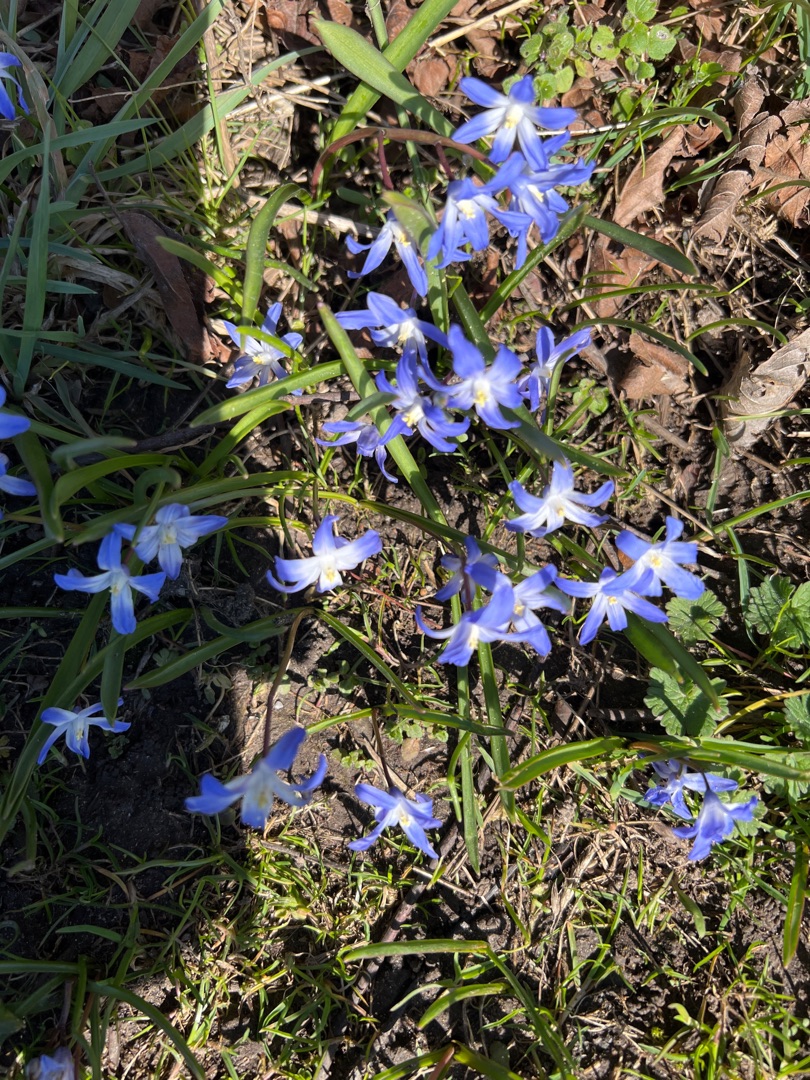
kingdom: Plantae
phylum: Tracheophyta
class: Liliopsida
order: Asparagales
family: Asparagaceae
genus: Scilla
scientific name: Scilla forbesii
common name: Almindelig snepryd
